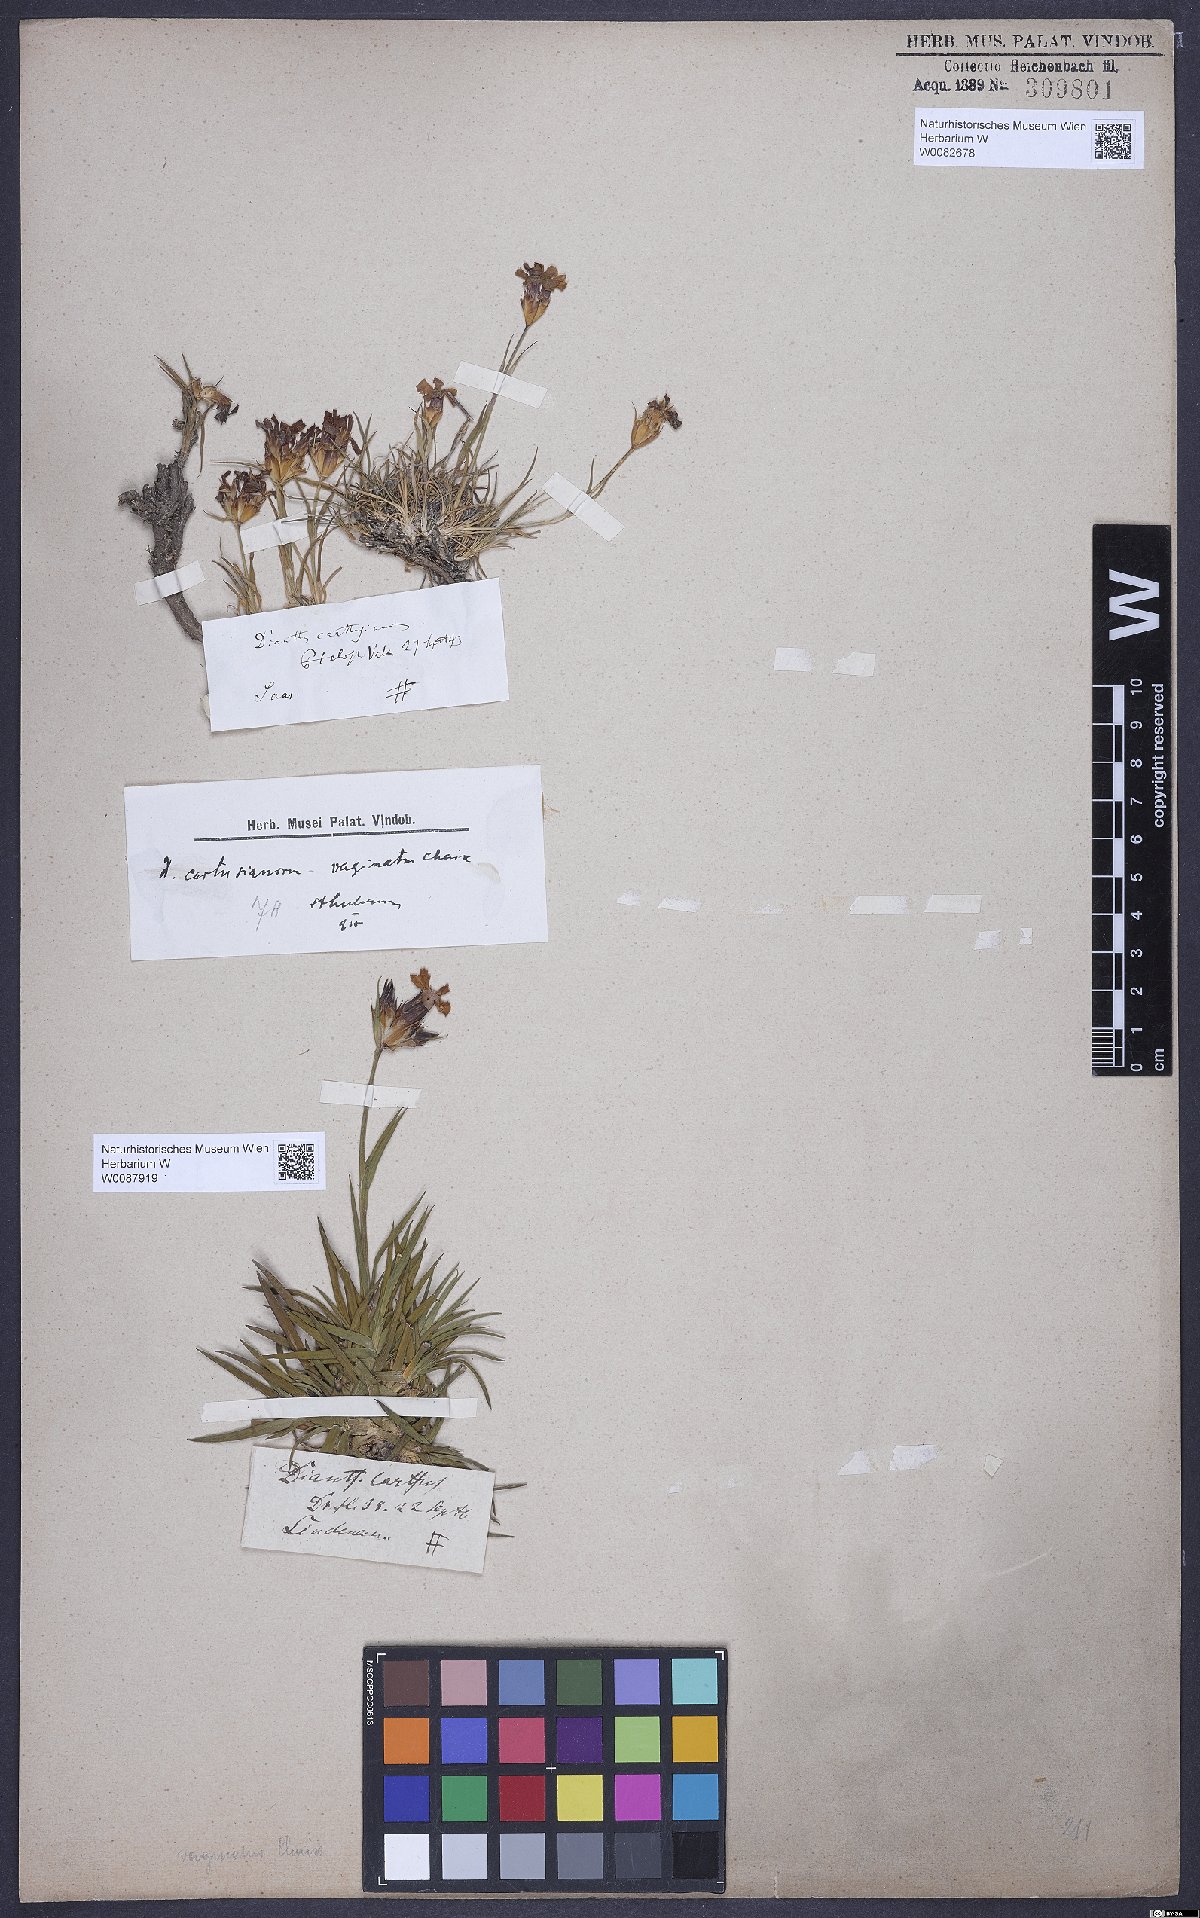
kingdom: Plantae
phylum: Tracheophyta
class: Magnoliopsida
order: Caryophyllales
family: Caryophyllaceae
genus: Dianthus
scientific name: Dianthus carthusianorum
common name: Carthusian pink
